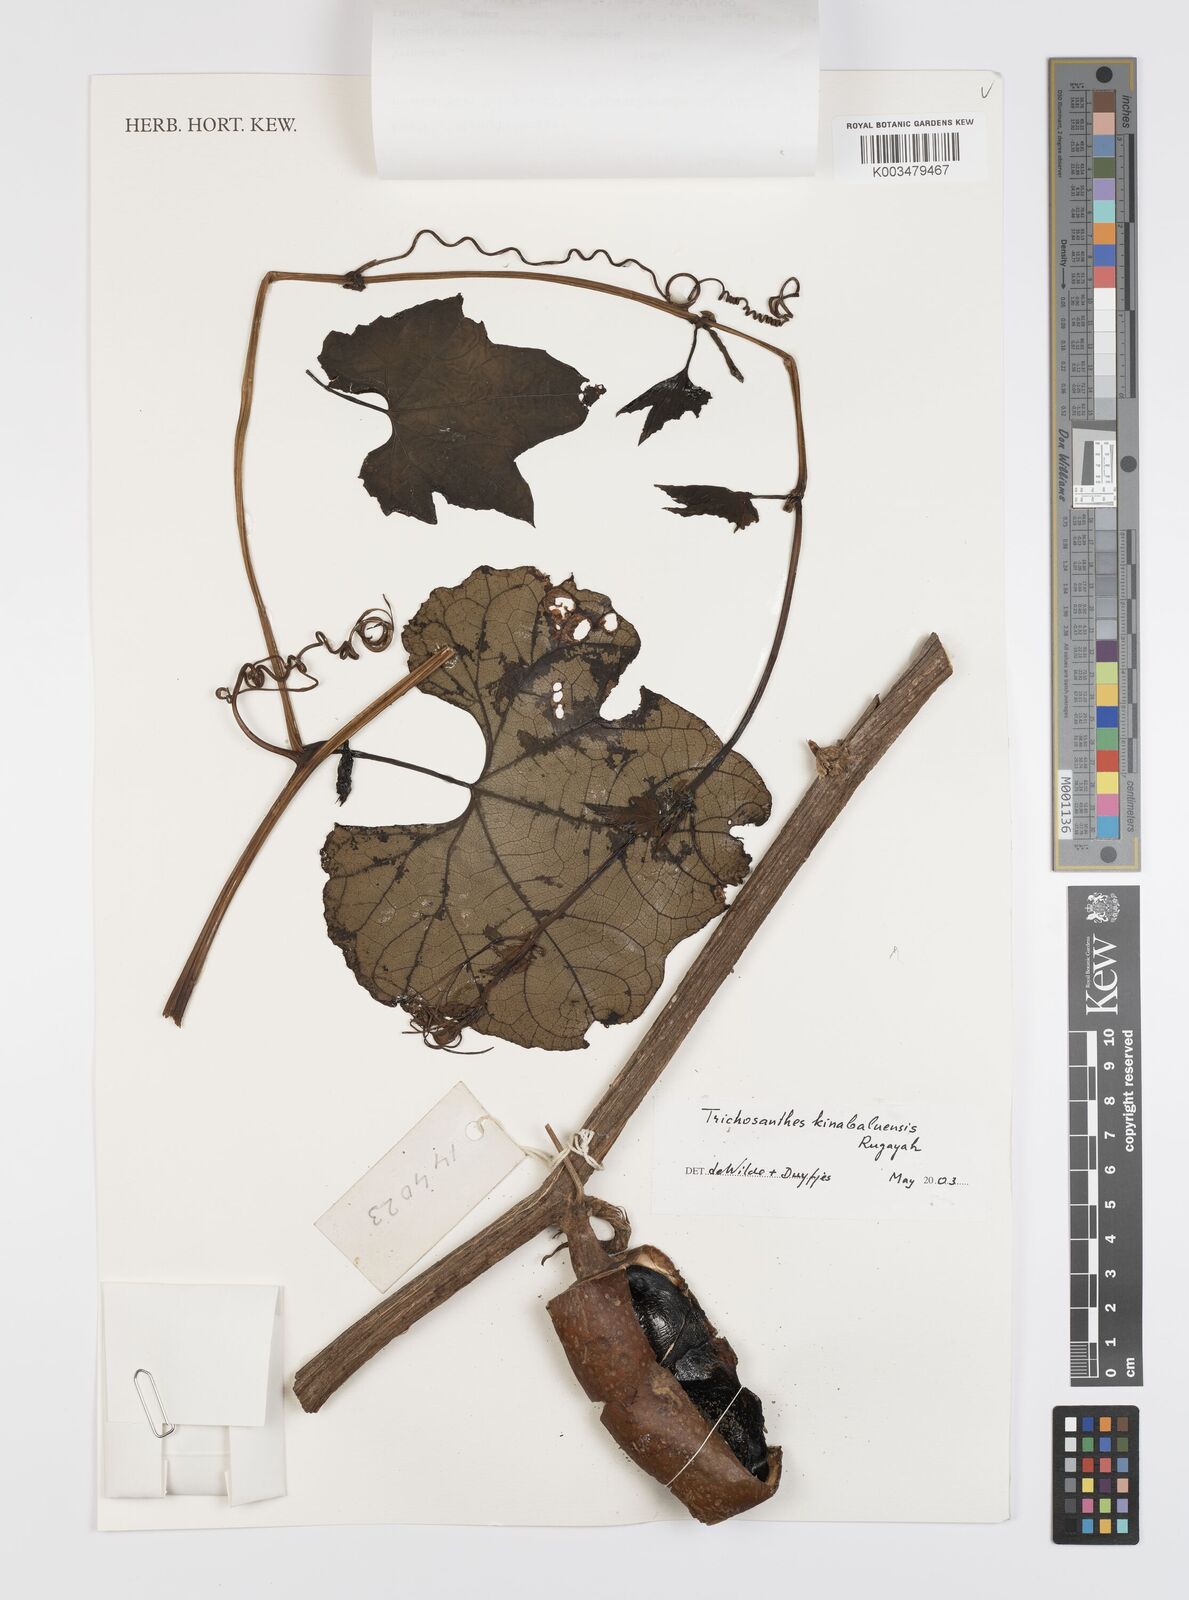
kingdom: Plantae
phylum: Tracheophyta
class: Magnoliopsida
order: Cucurbitales
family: Cucurbitaceae
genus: Trichosanthes
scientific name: Trichosanthes kinabaluensis
